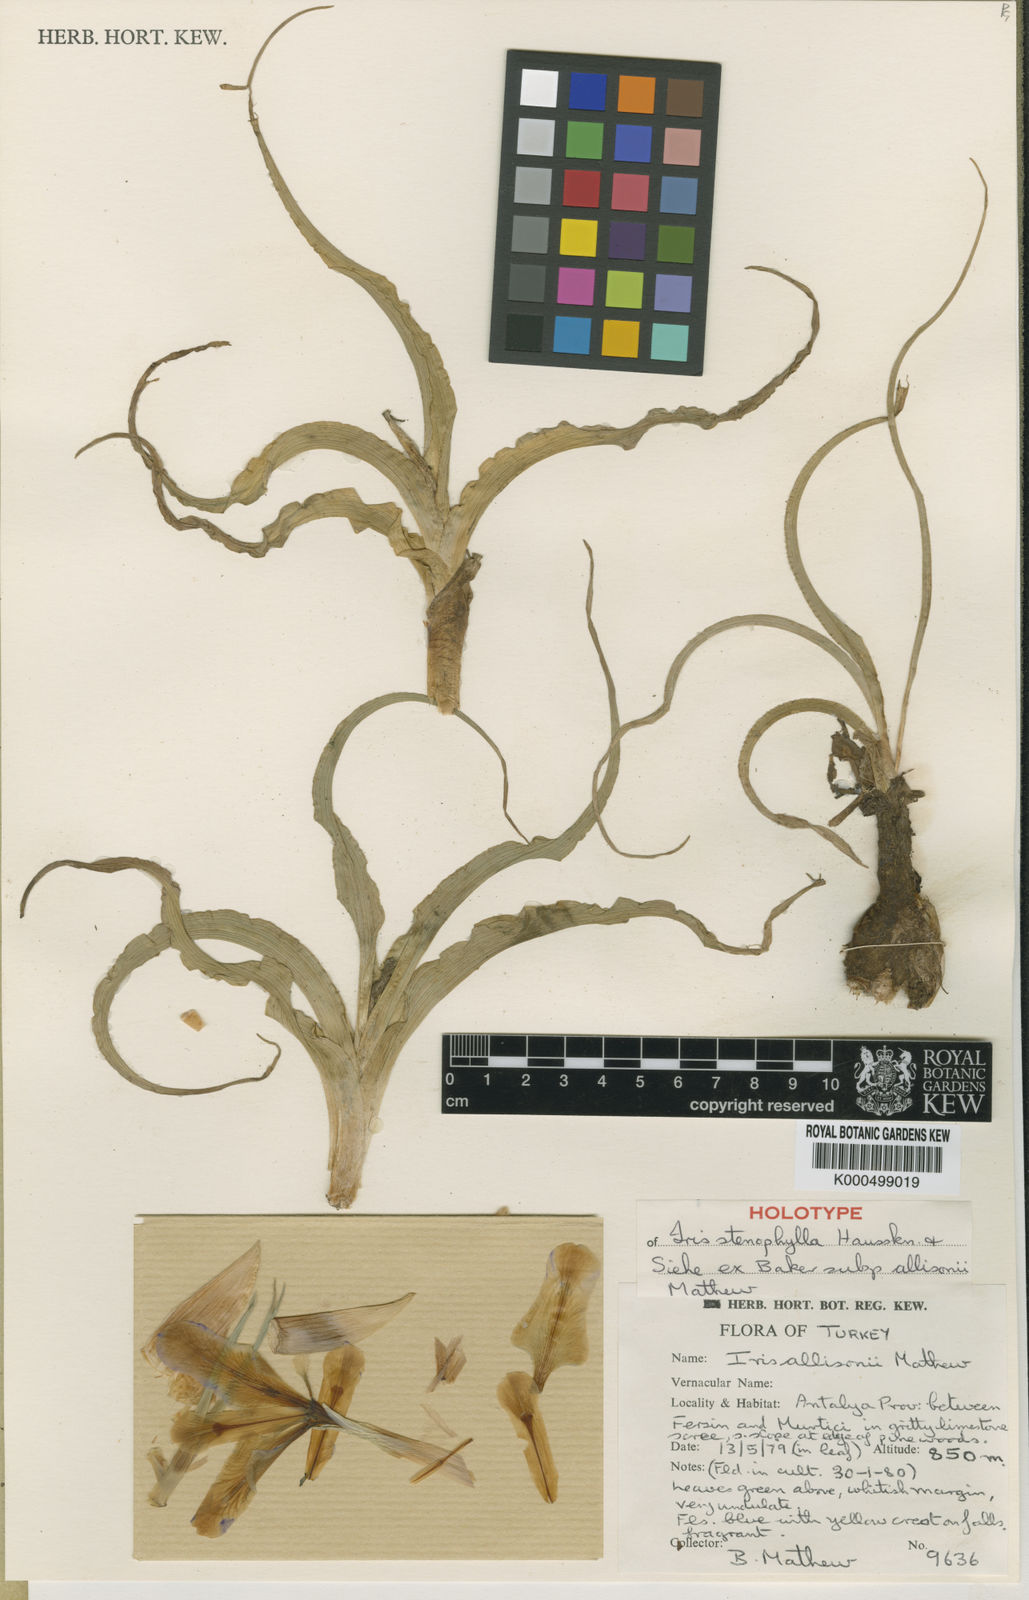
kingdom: Plantae
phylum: Tracheophyta
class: Liliopsida
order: Asparagales
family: Iridaceae
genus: Iris
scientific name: Iris stenophylla
